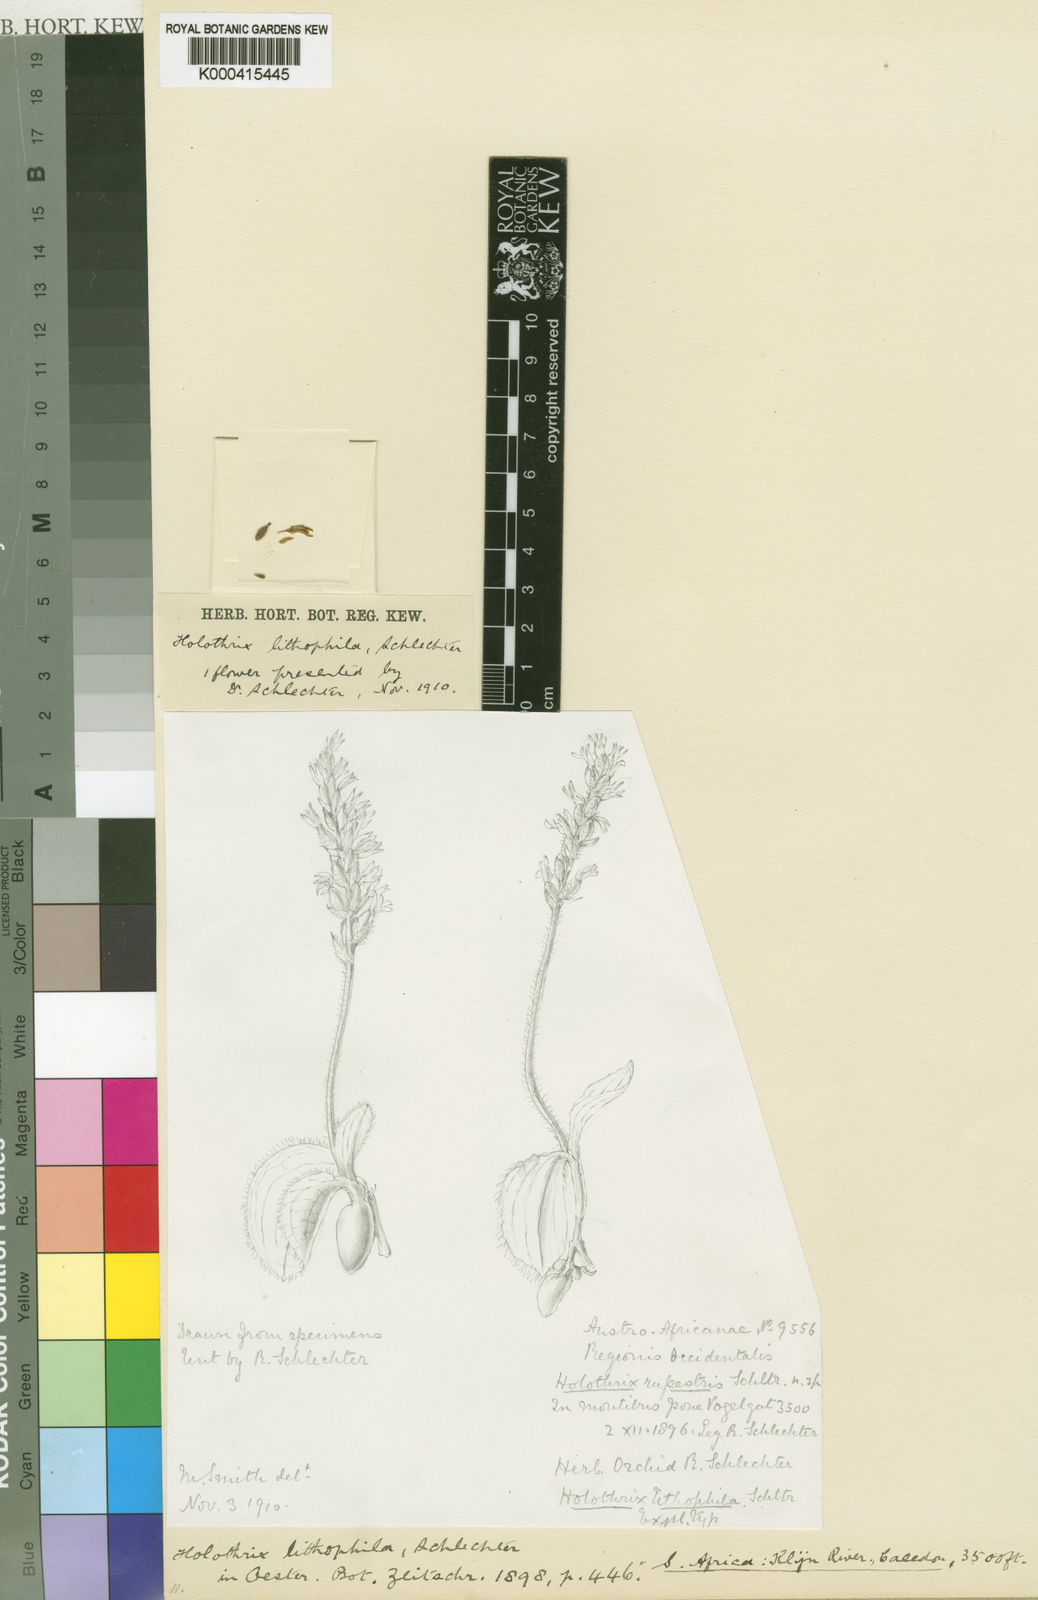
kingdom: Plantae
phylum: Tracheophyta
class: Liliopsida
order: Asparagales
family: Orchidaceae
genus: Holothrix
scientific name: Holothrix condensata
